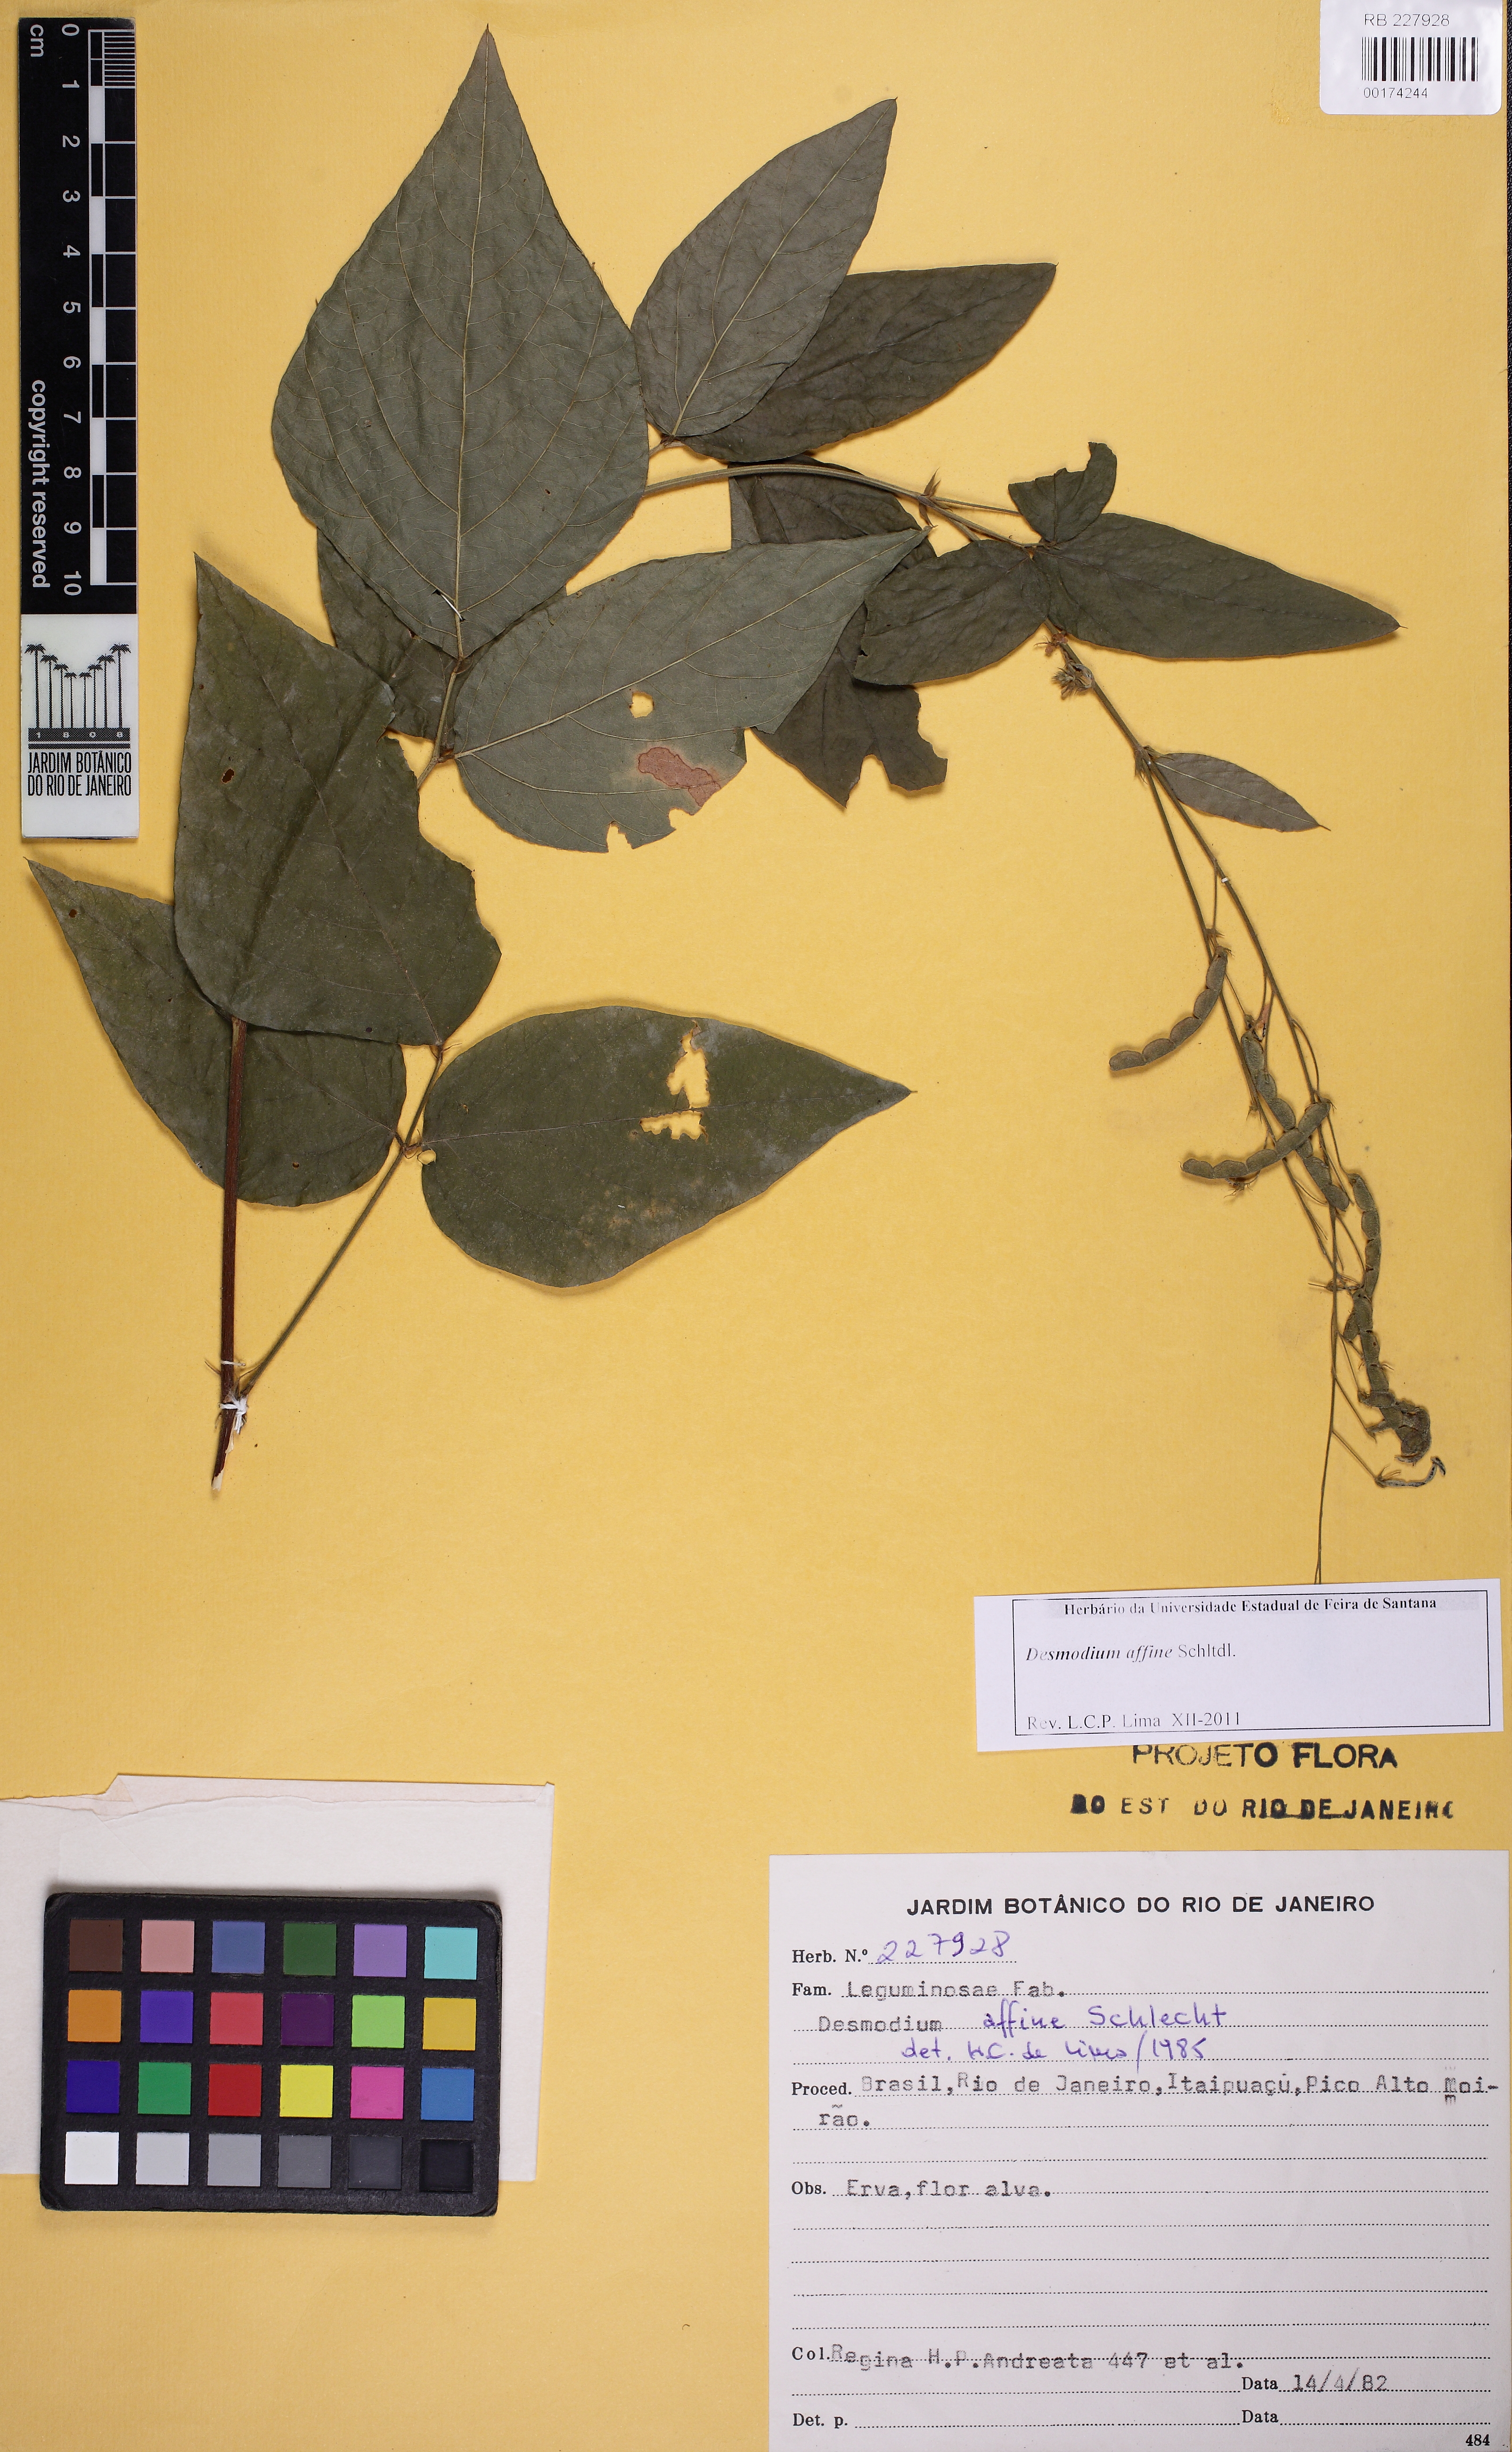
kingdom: Plantae
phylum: Tracheophyta
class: Magnoliopsida
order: Fabales
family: Fabaceae
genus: Desmodium
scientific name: Desmodium affine
